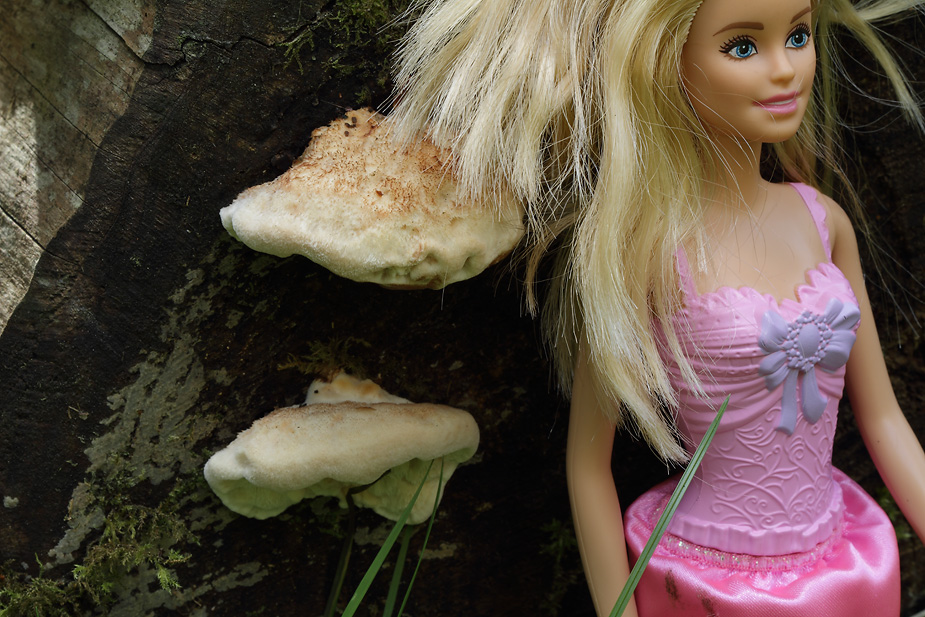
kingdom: Fungi
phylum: Basidiomycota
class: Agaricomycetes
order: Polyporales
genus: Fuscopostia
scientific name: Fuscopostia fragilis
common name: brunende kødporesvamp
